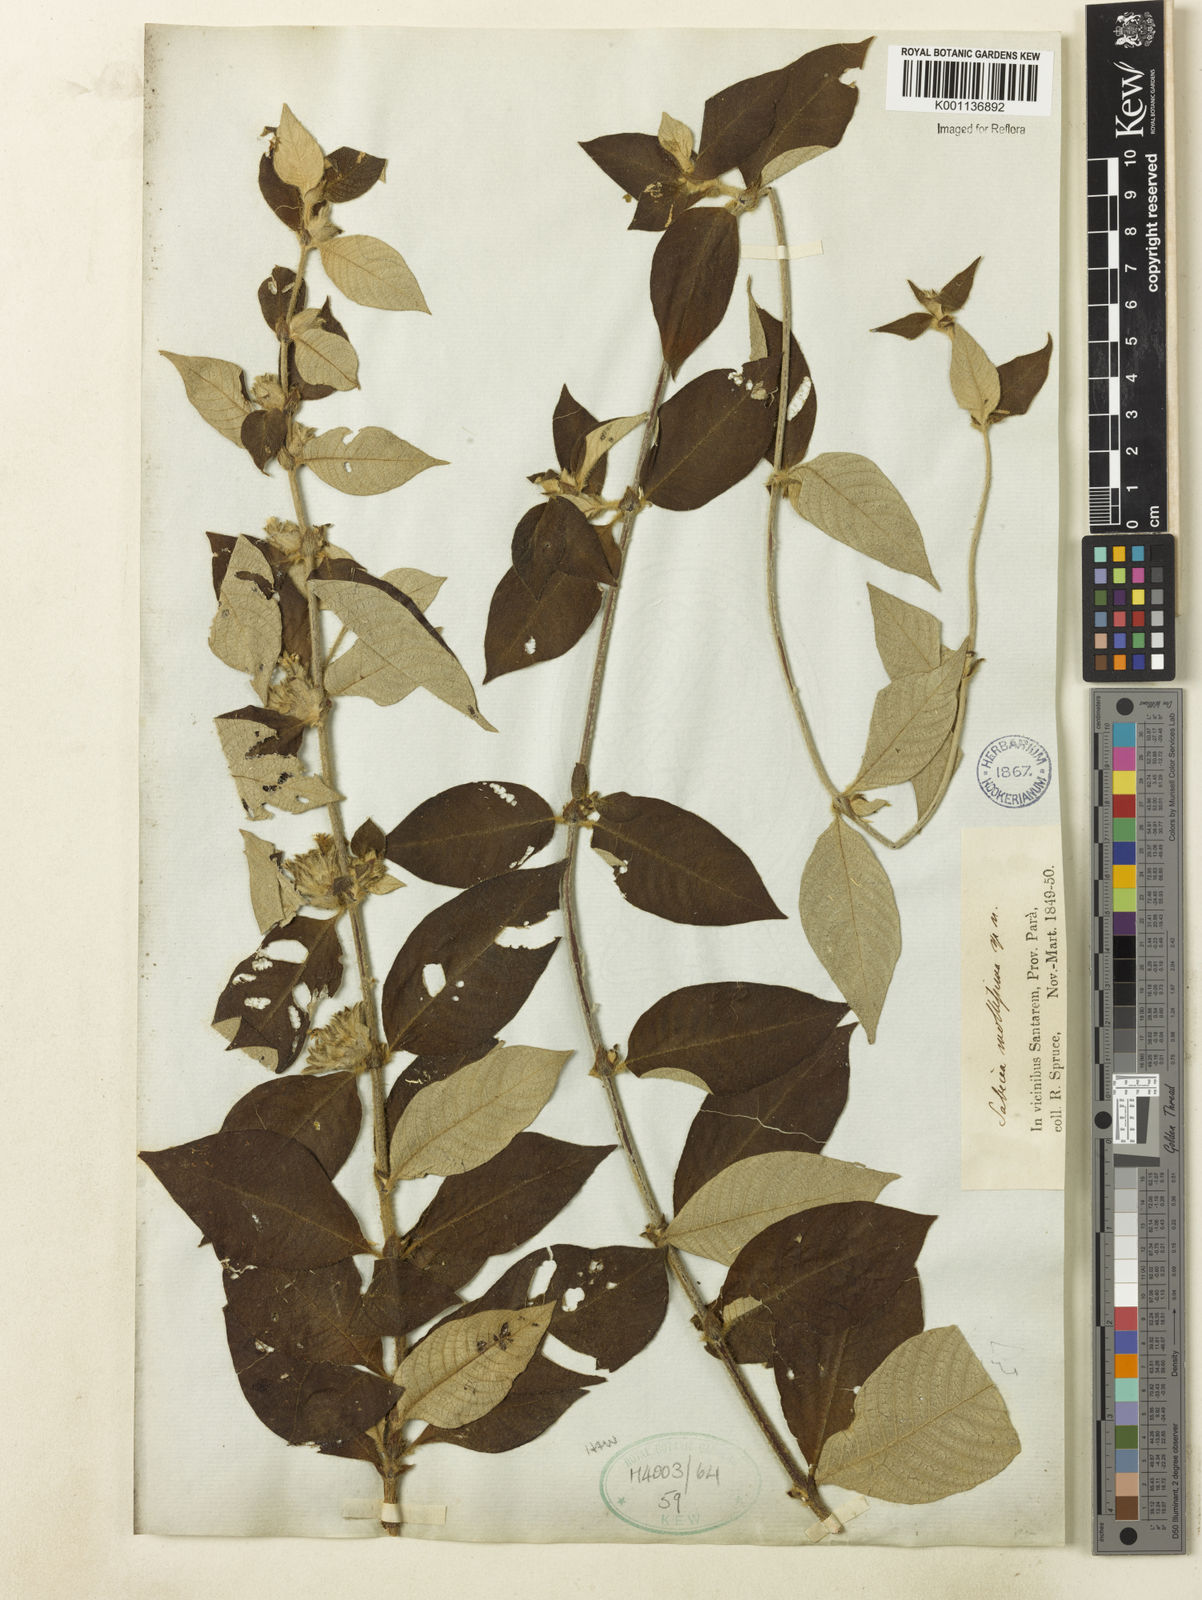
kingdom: Plantae
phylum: Tracheophyta
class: Magnoliopsida
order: Gentianales
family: Rubiaceae
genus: Sabicea
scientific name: Sabicea mollissima
